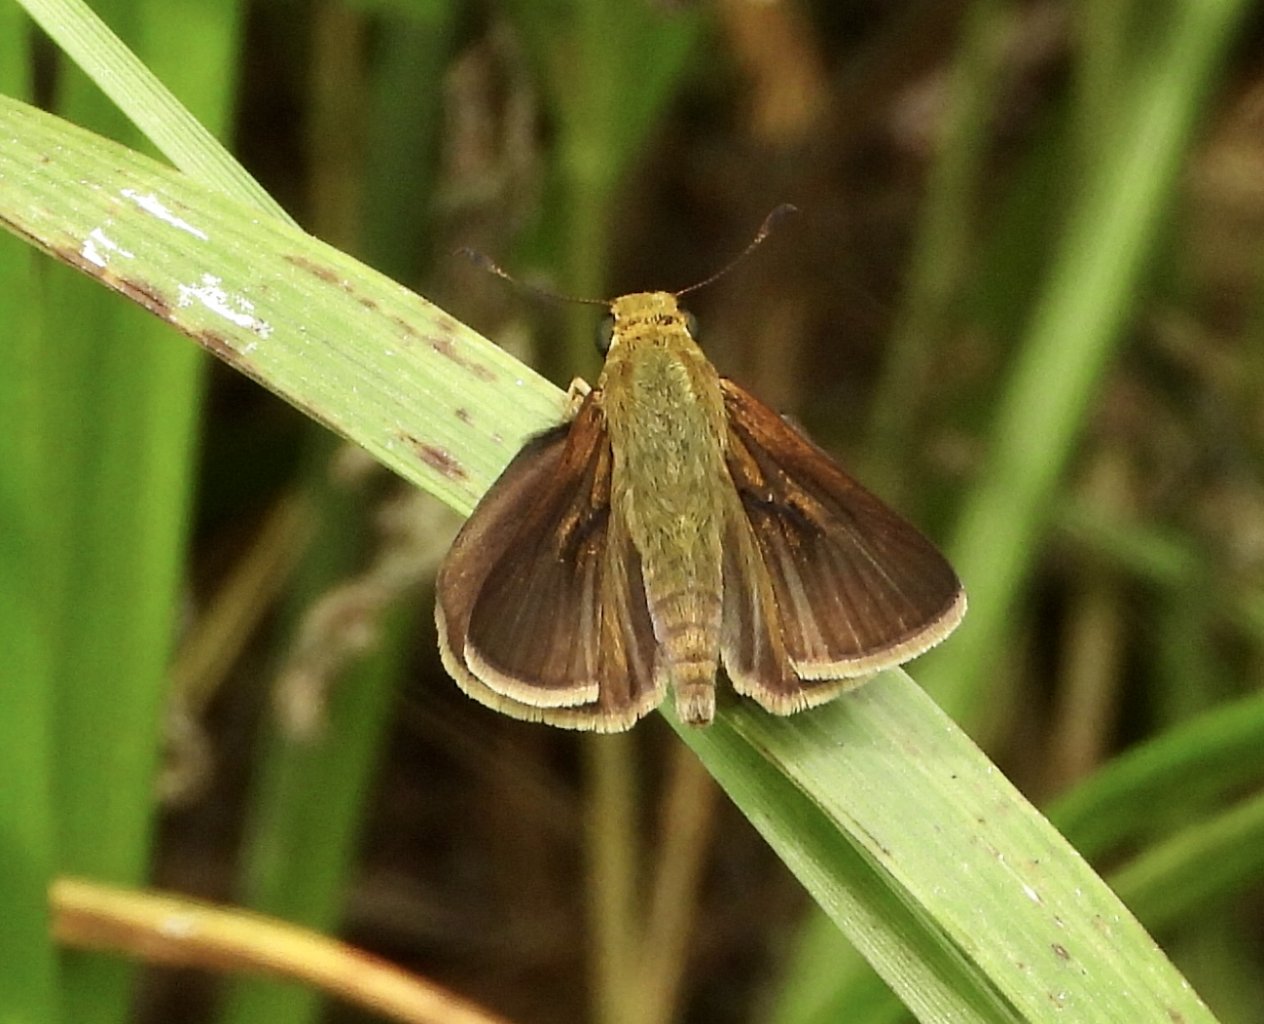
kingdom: Animalia
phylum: Arthropoda
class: Insecta
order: Lepidoptera
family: Hesperiidae
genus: Euphyes
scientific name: Euphyes vestris
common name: Dun Skipper
